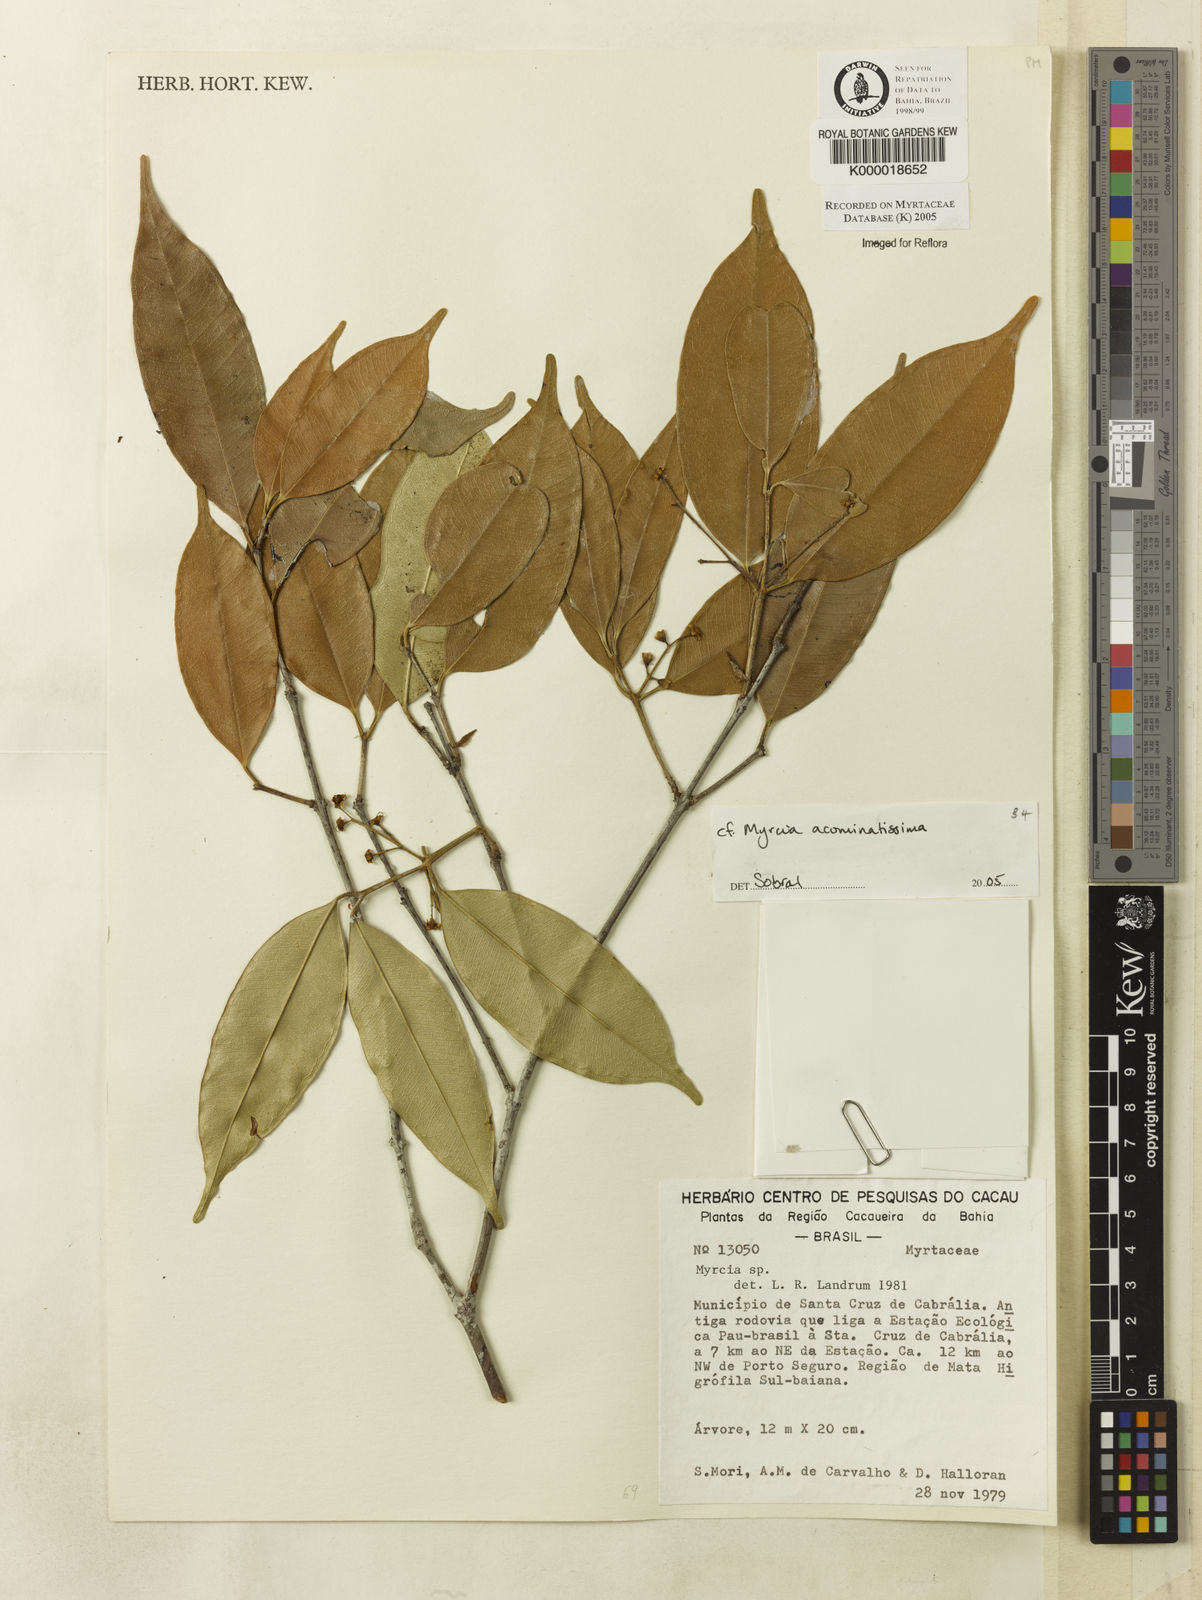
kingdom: Plantae
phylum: Tracheophyta
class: Magnoliopsida
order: Myrtales
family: Myrtaceae
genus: Myrcia
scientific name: Myrcia
